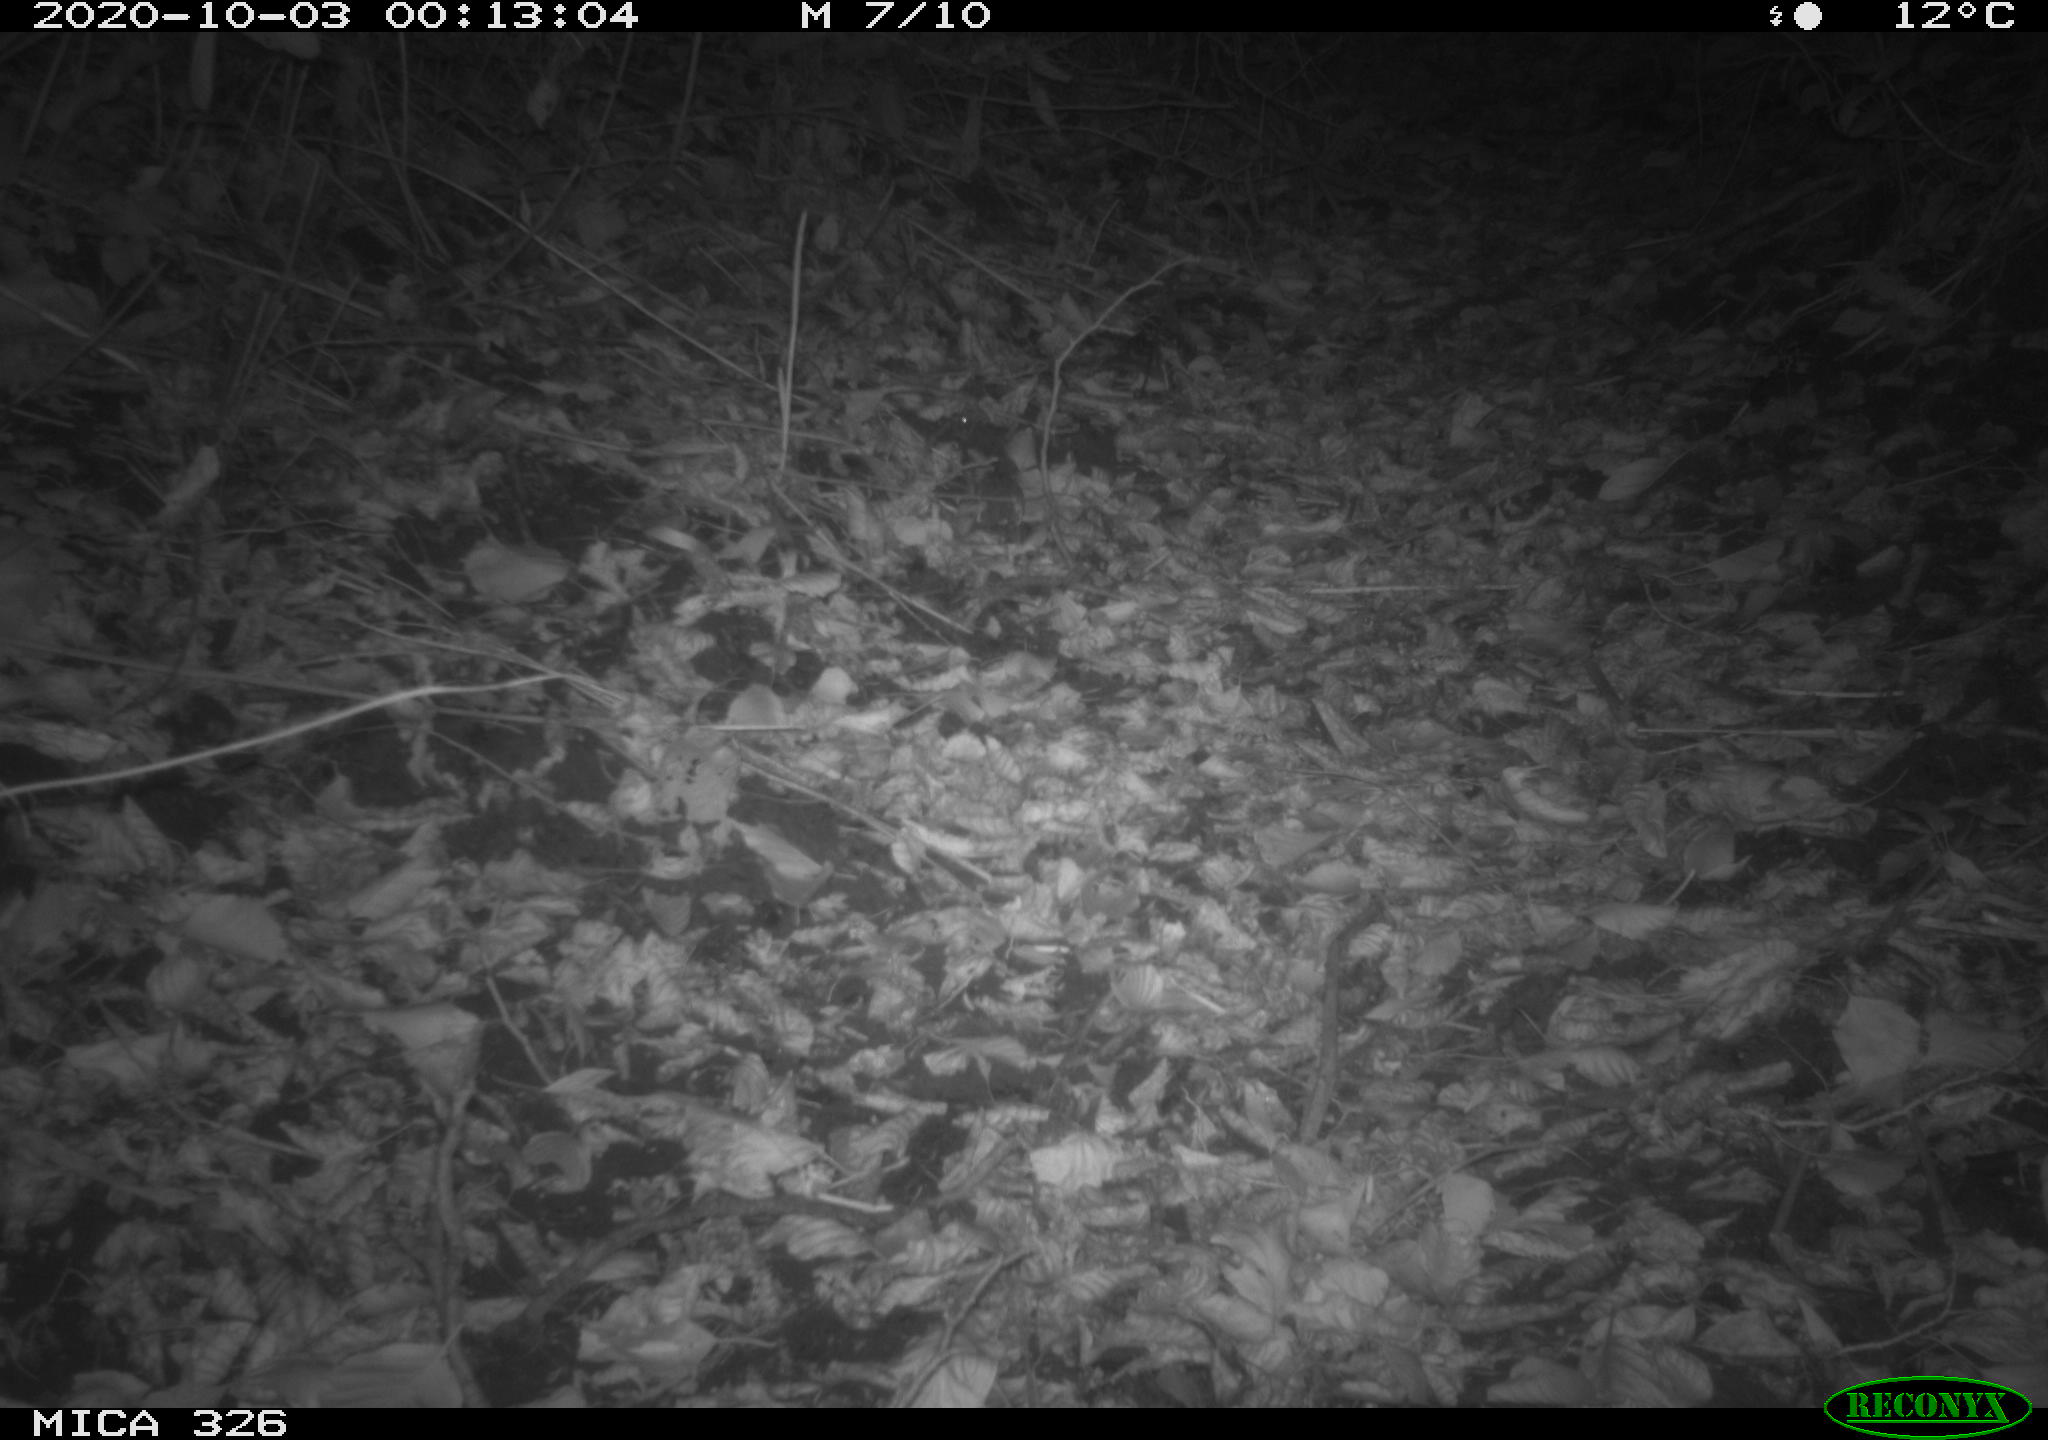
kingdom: Animalia
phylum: Chordata
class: Mammalia
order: Carnivora
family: Mustelidae
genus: Lutra
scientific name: Lutra lutra
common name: European otter
